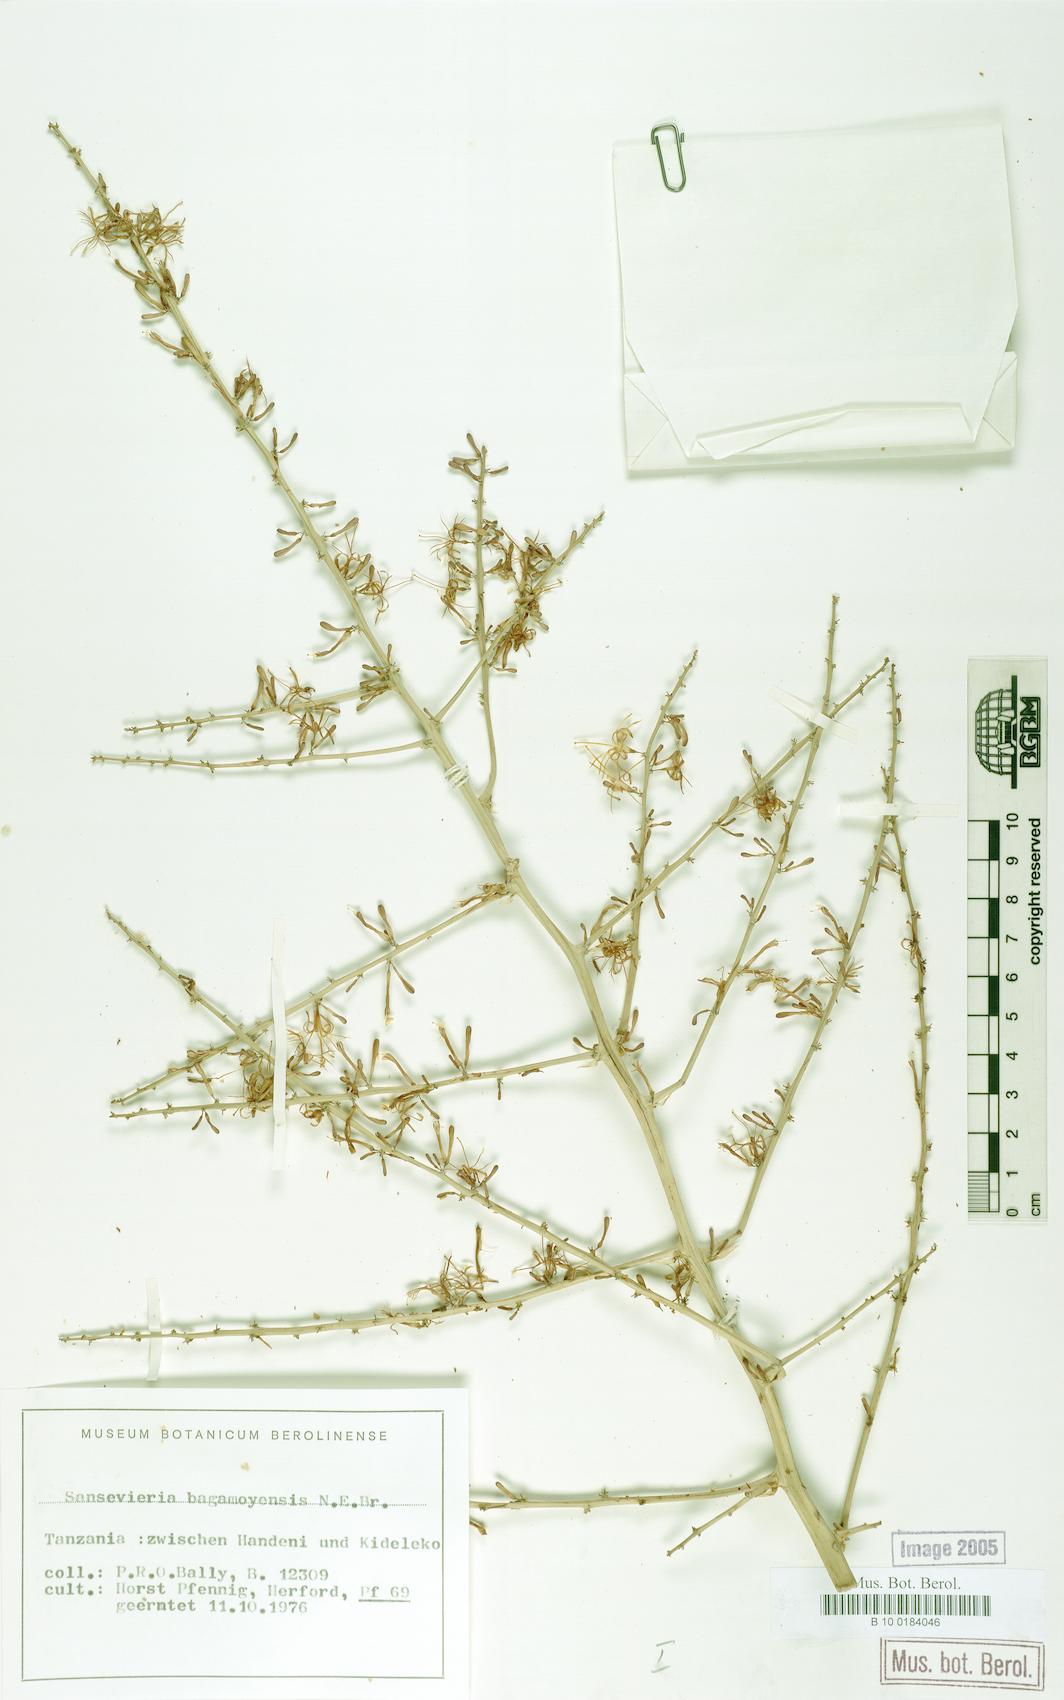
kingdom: Plantae
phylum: Tracheophyta
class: Liliopsida
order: Asparagales
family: Asparagaceae
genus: Dracaena
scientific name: Dracaena bagamoyensis
